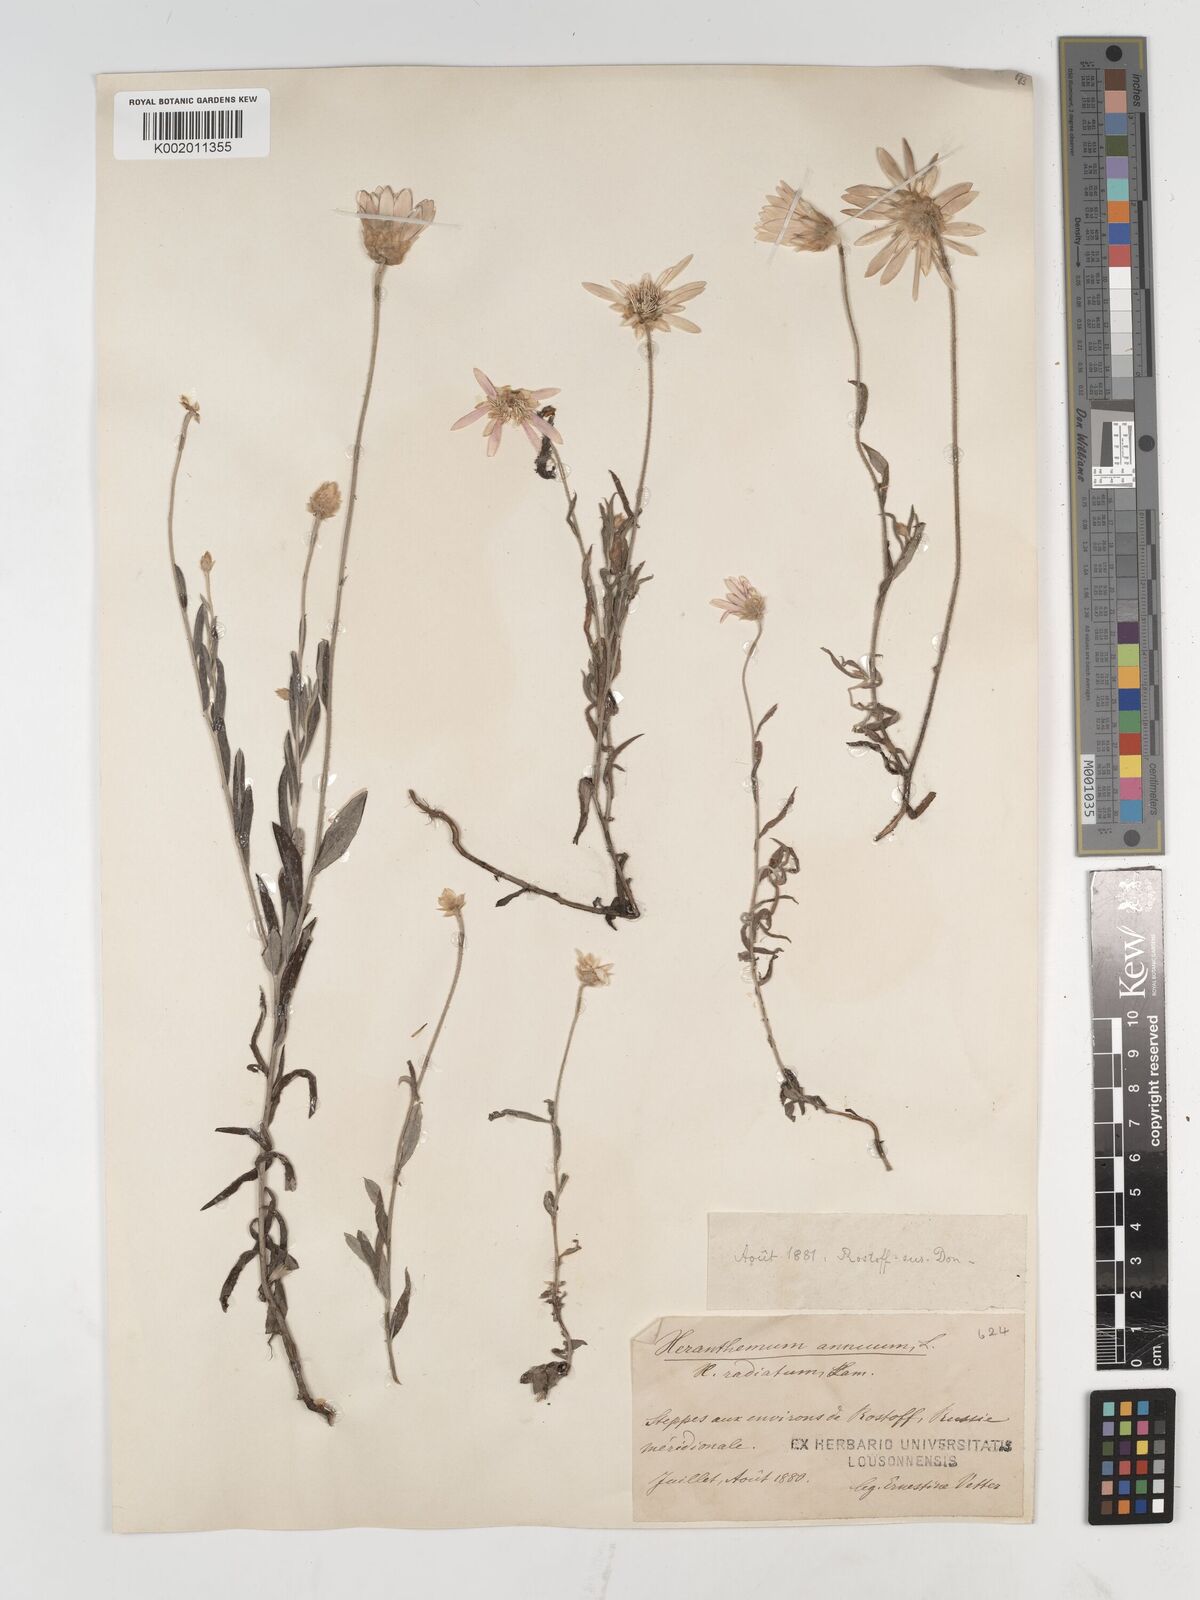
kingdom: Plantae
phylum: Tracheophyta
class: Magnoliopsida
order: Asterales
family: Asteraceae
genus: Xeranthemum
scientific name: Xeranthemum annuum
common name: Immortelle
